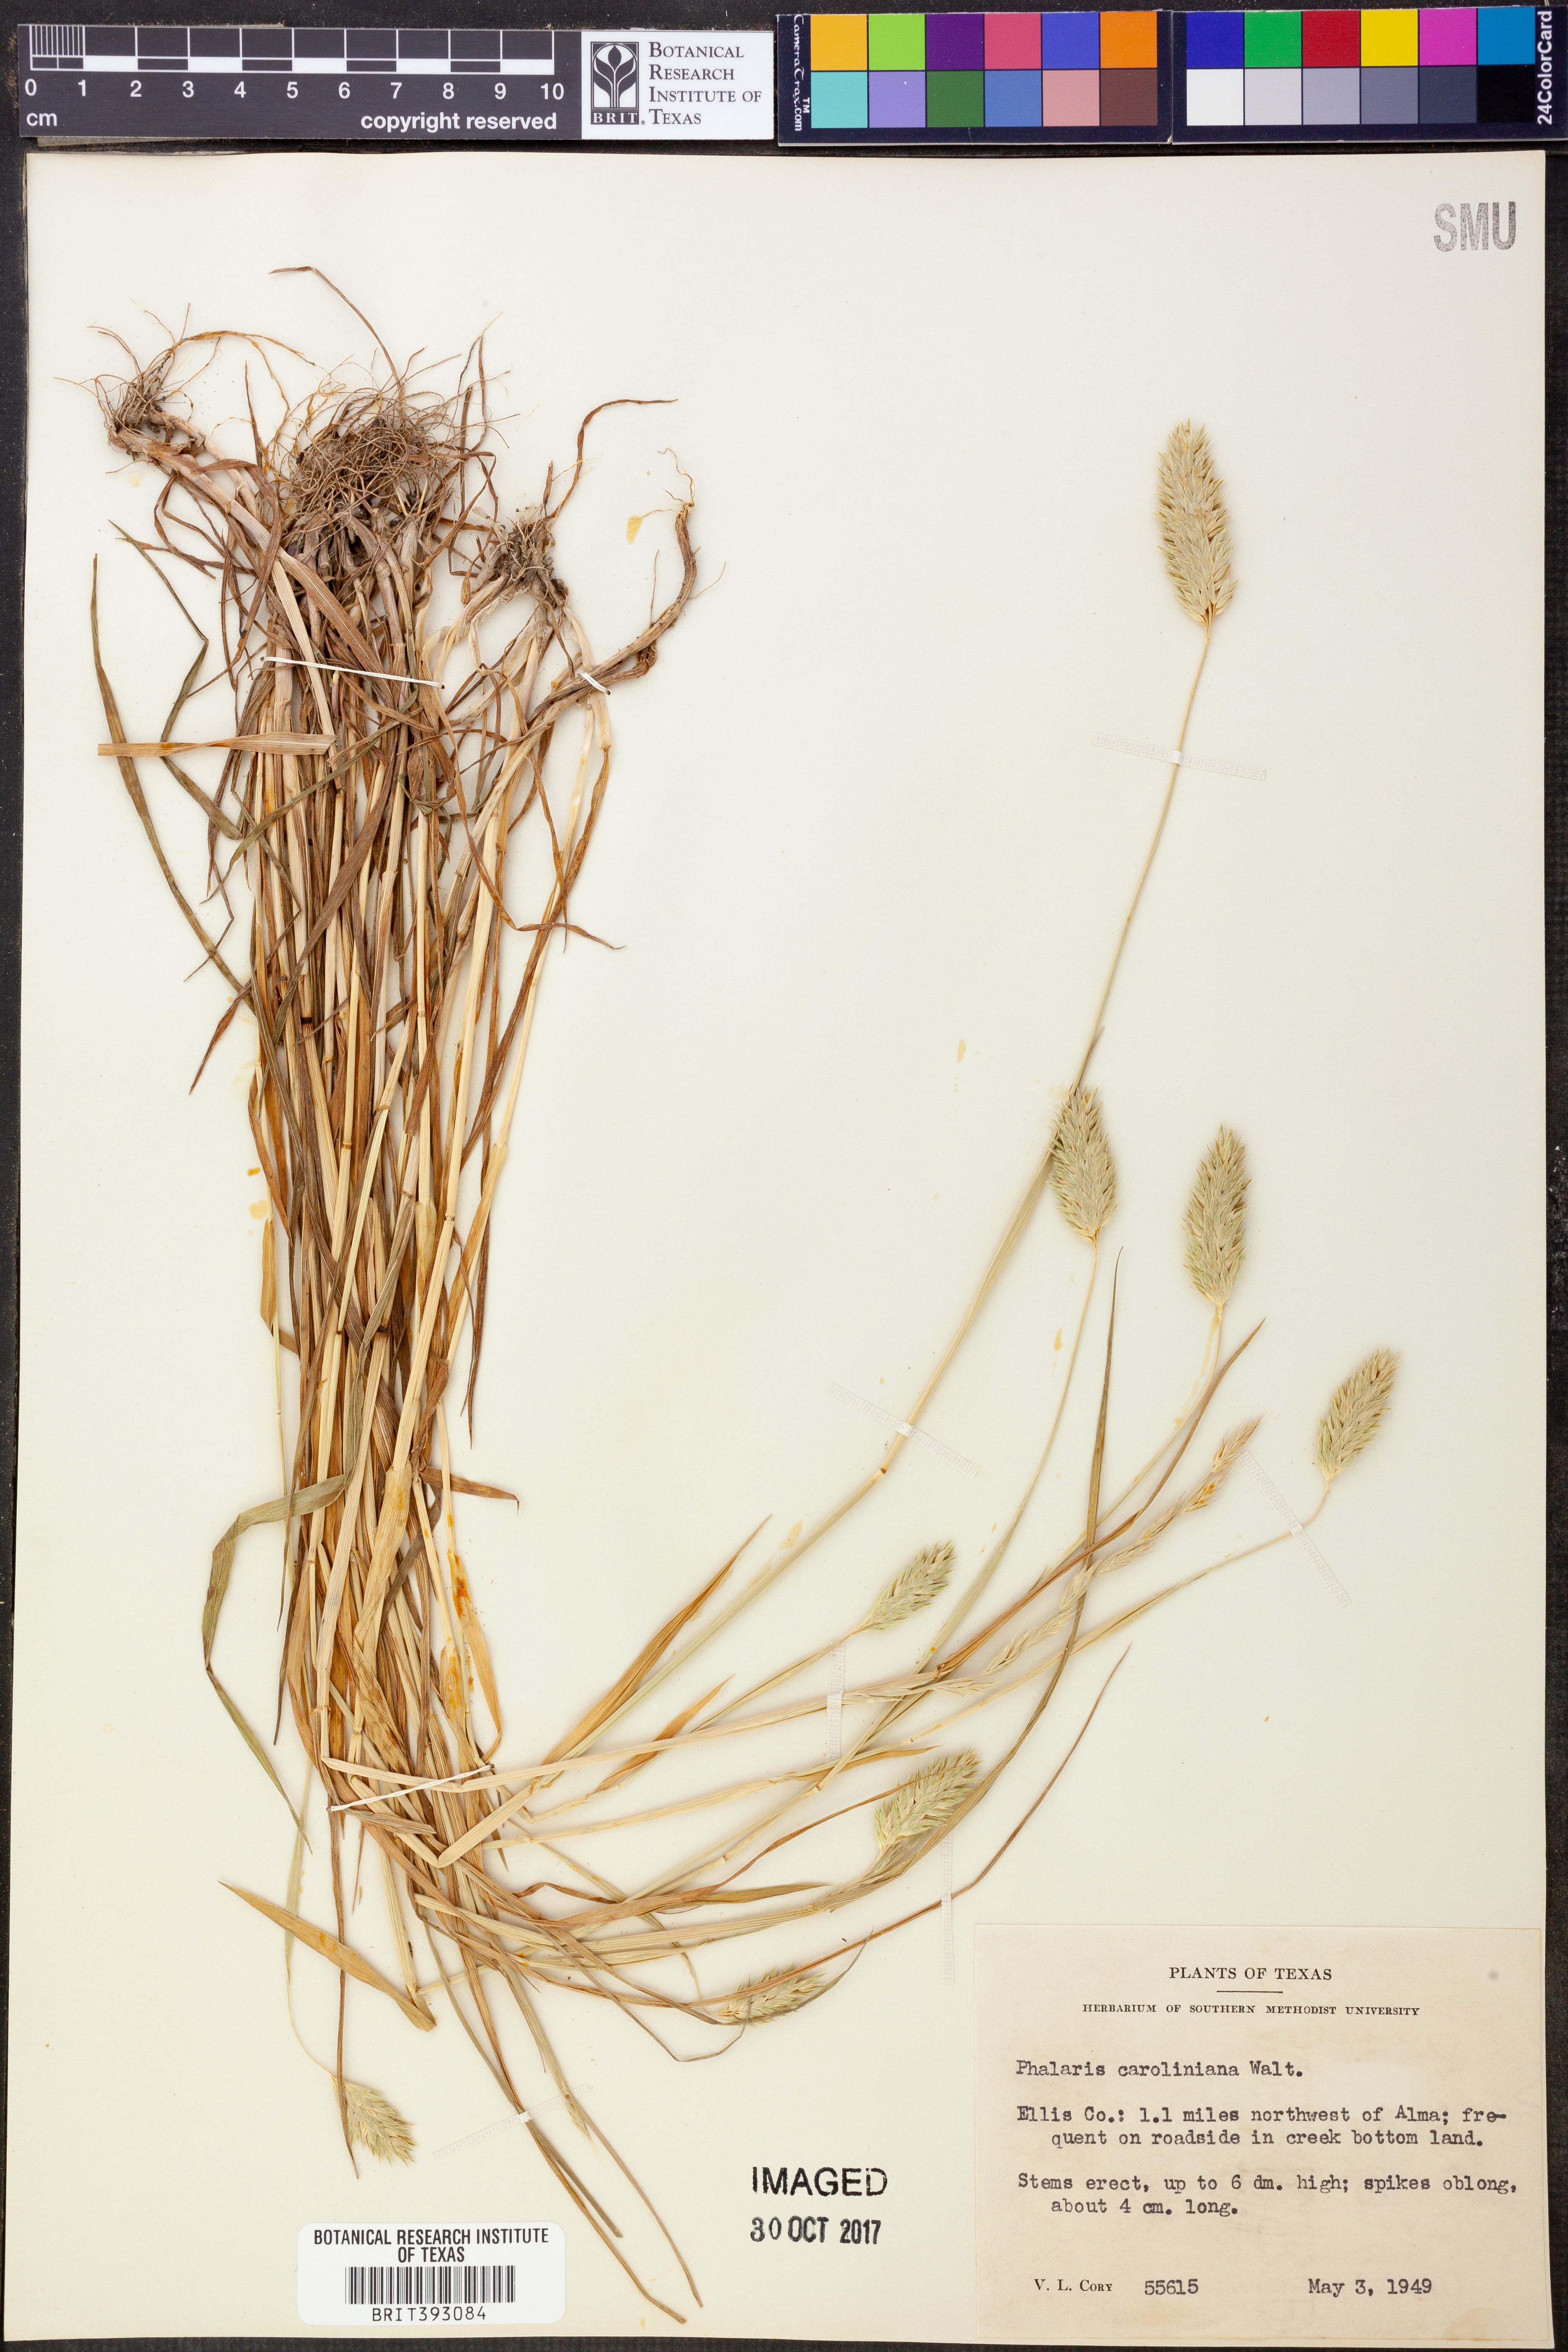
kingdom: Plantae
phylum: Tracheophyta
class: Liliopsida
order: Poales
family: Poaceae
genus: Phalaris
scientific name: Phalaris caroliniana
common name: May grass
